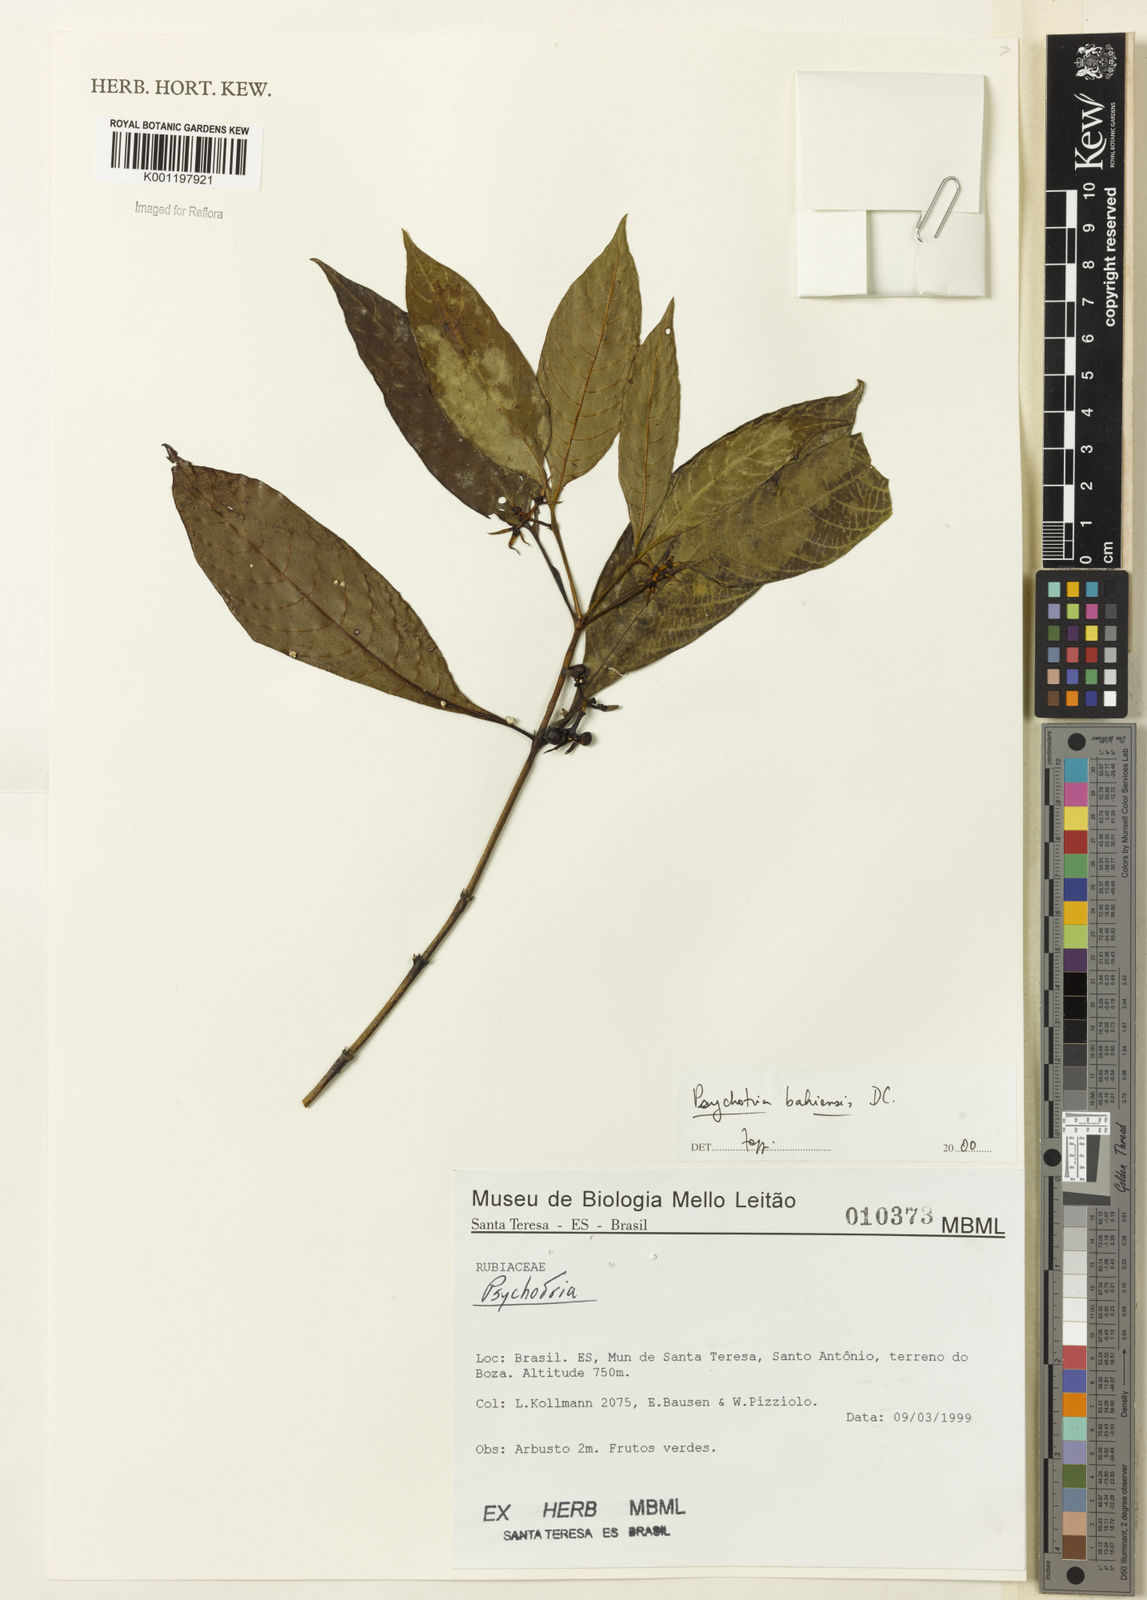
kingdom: Plantae
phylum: Tracheophyta
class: Magnoliopsida
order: Gentianales
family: Rubiaceae
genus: Psychotria
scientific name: Psychotria bahiensis
